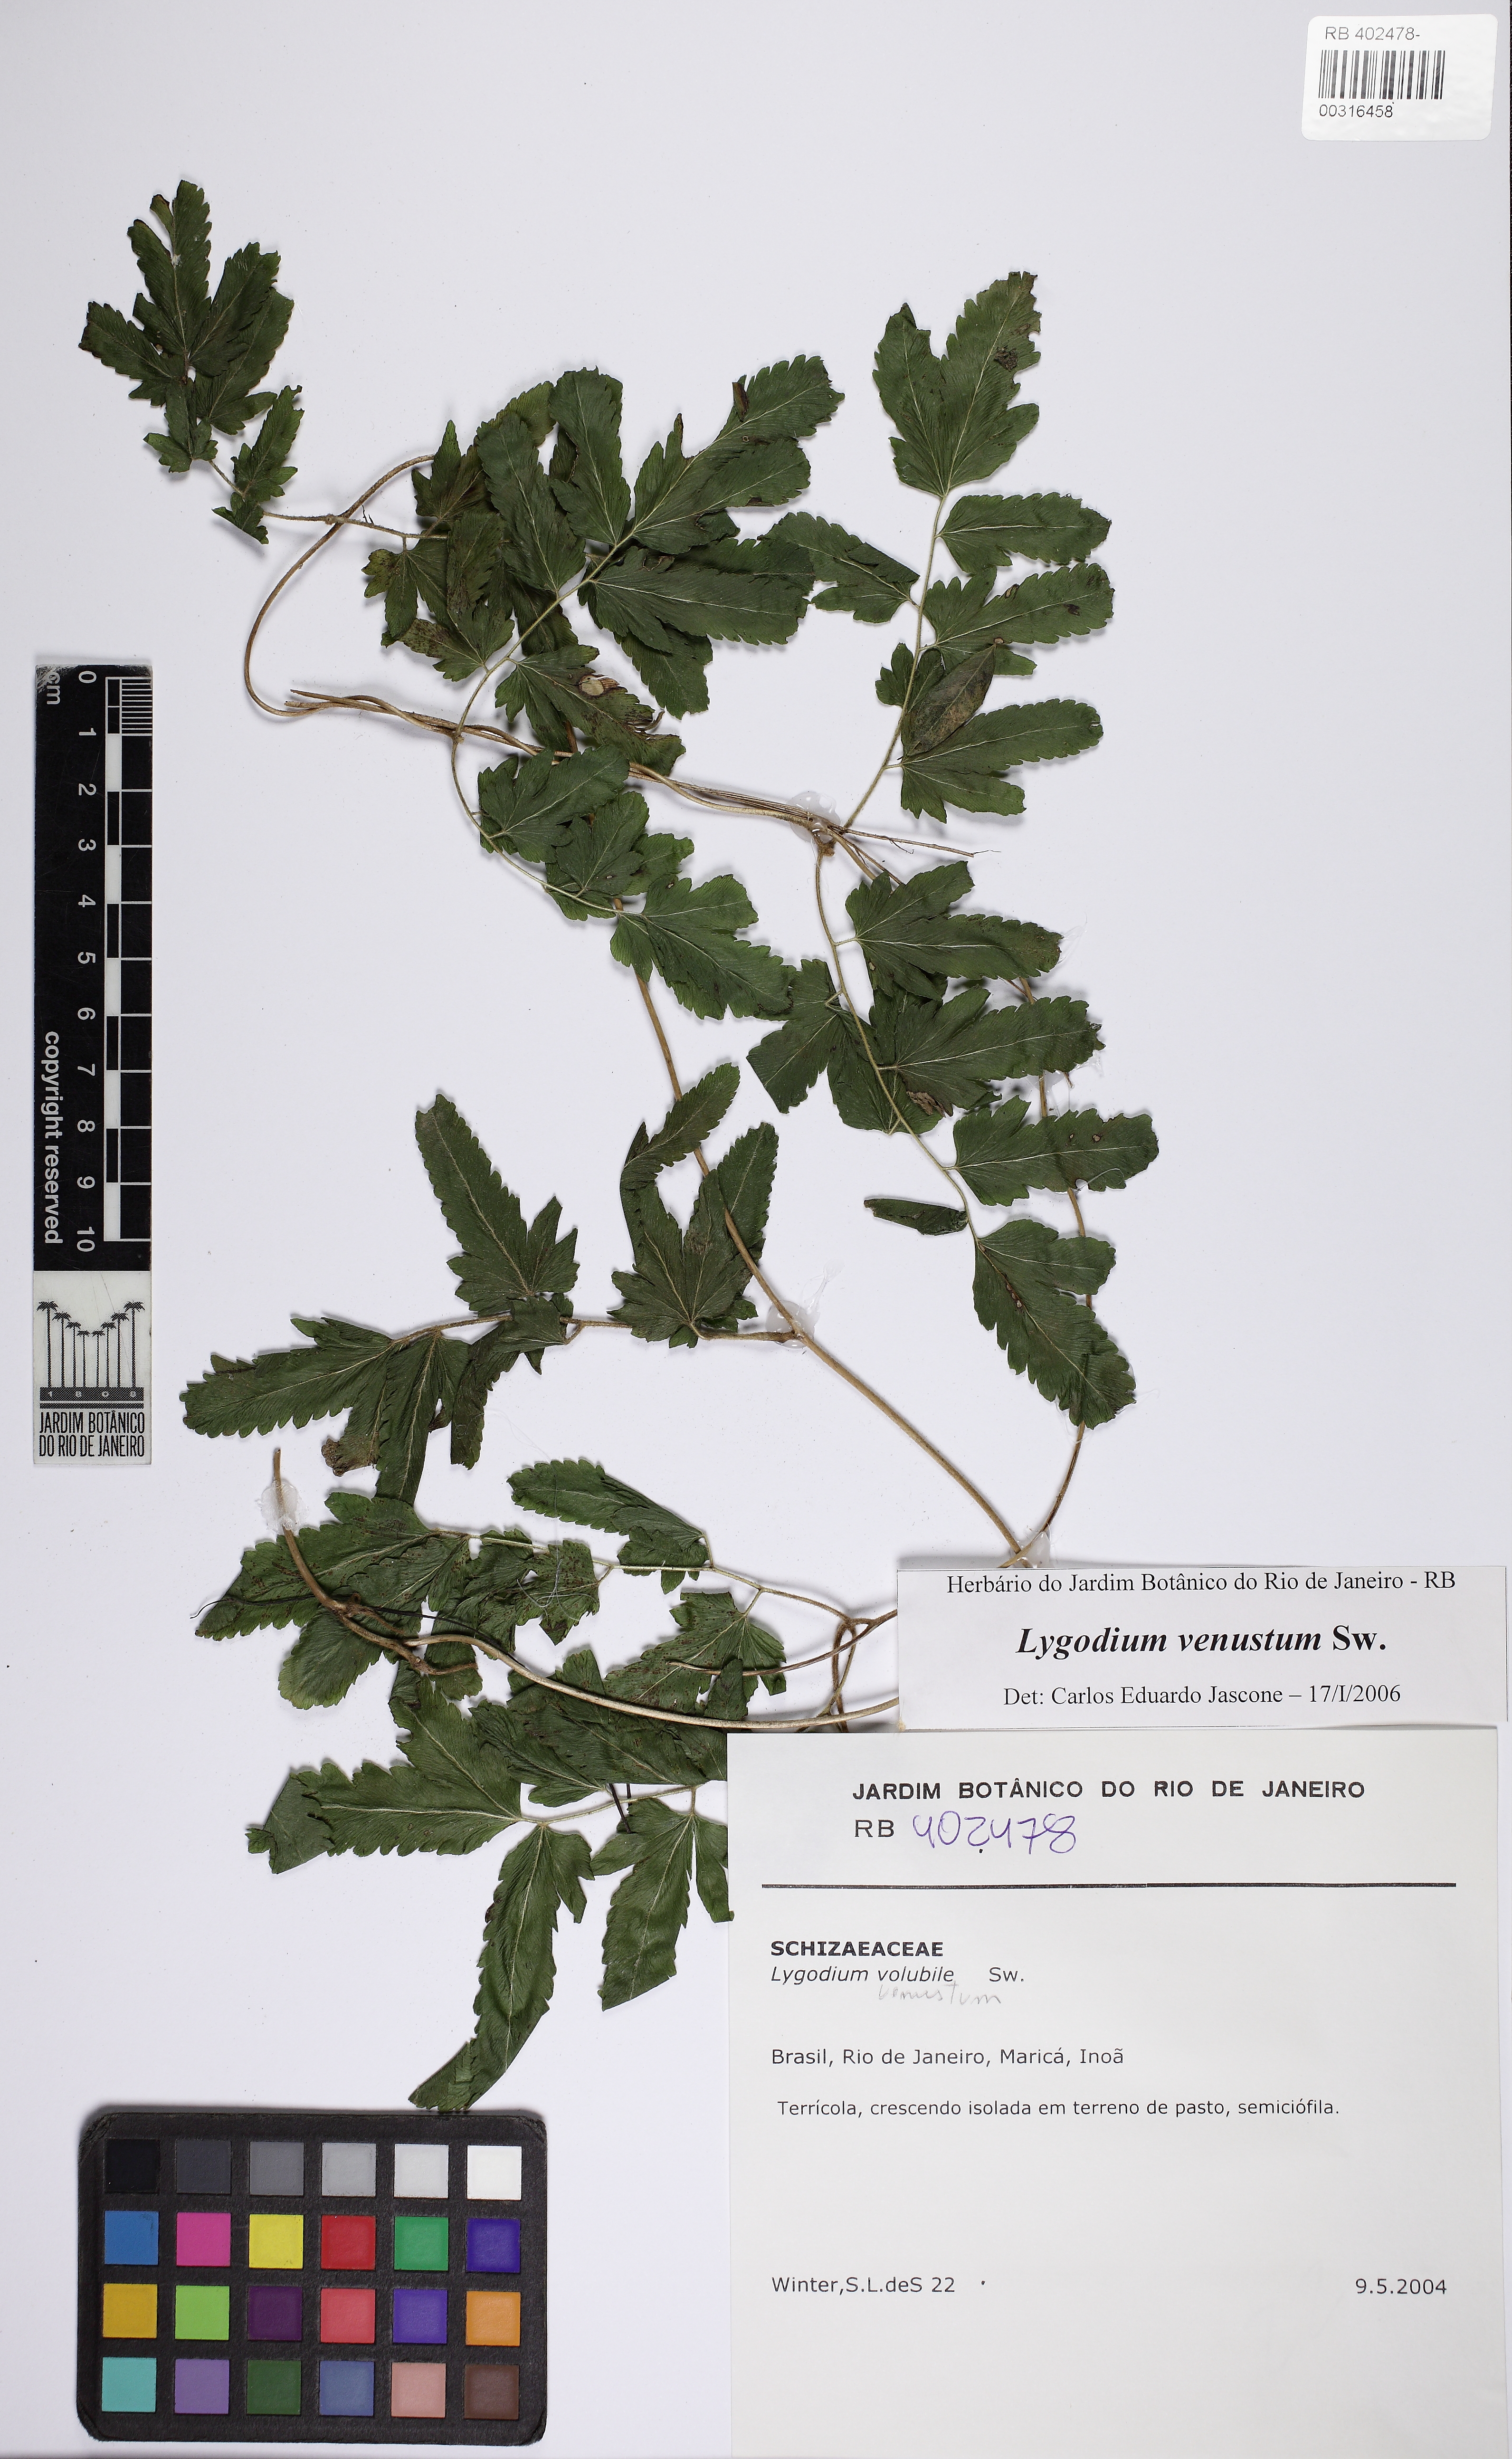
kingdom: Plantae
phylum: Tracheophyta
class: Polypodiopsida
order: Schizaeales
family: Lygodiaceae
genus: Lygodium
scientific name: Lygodium venustum
